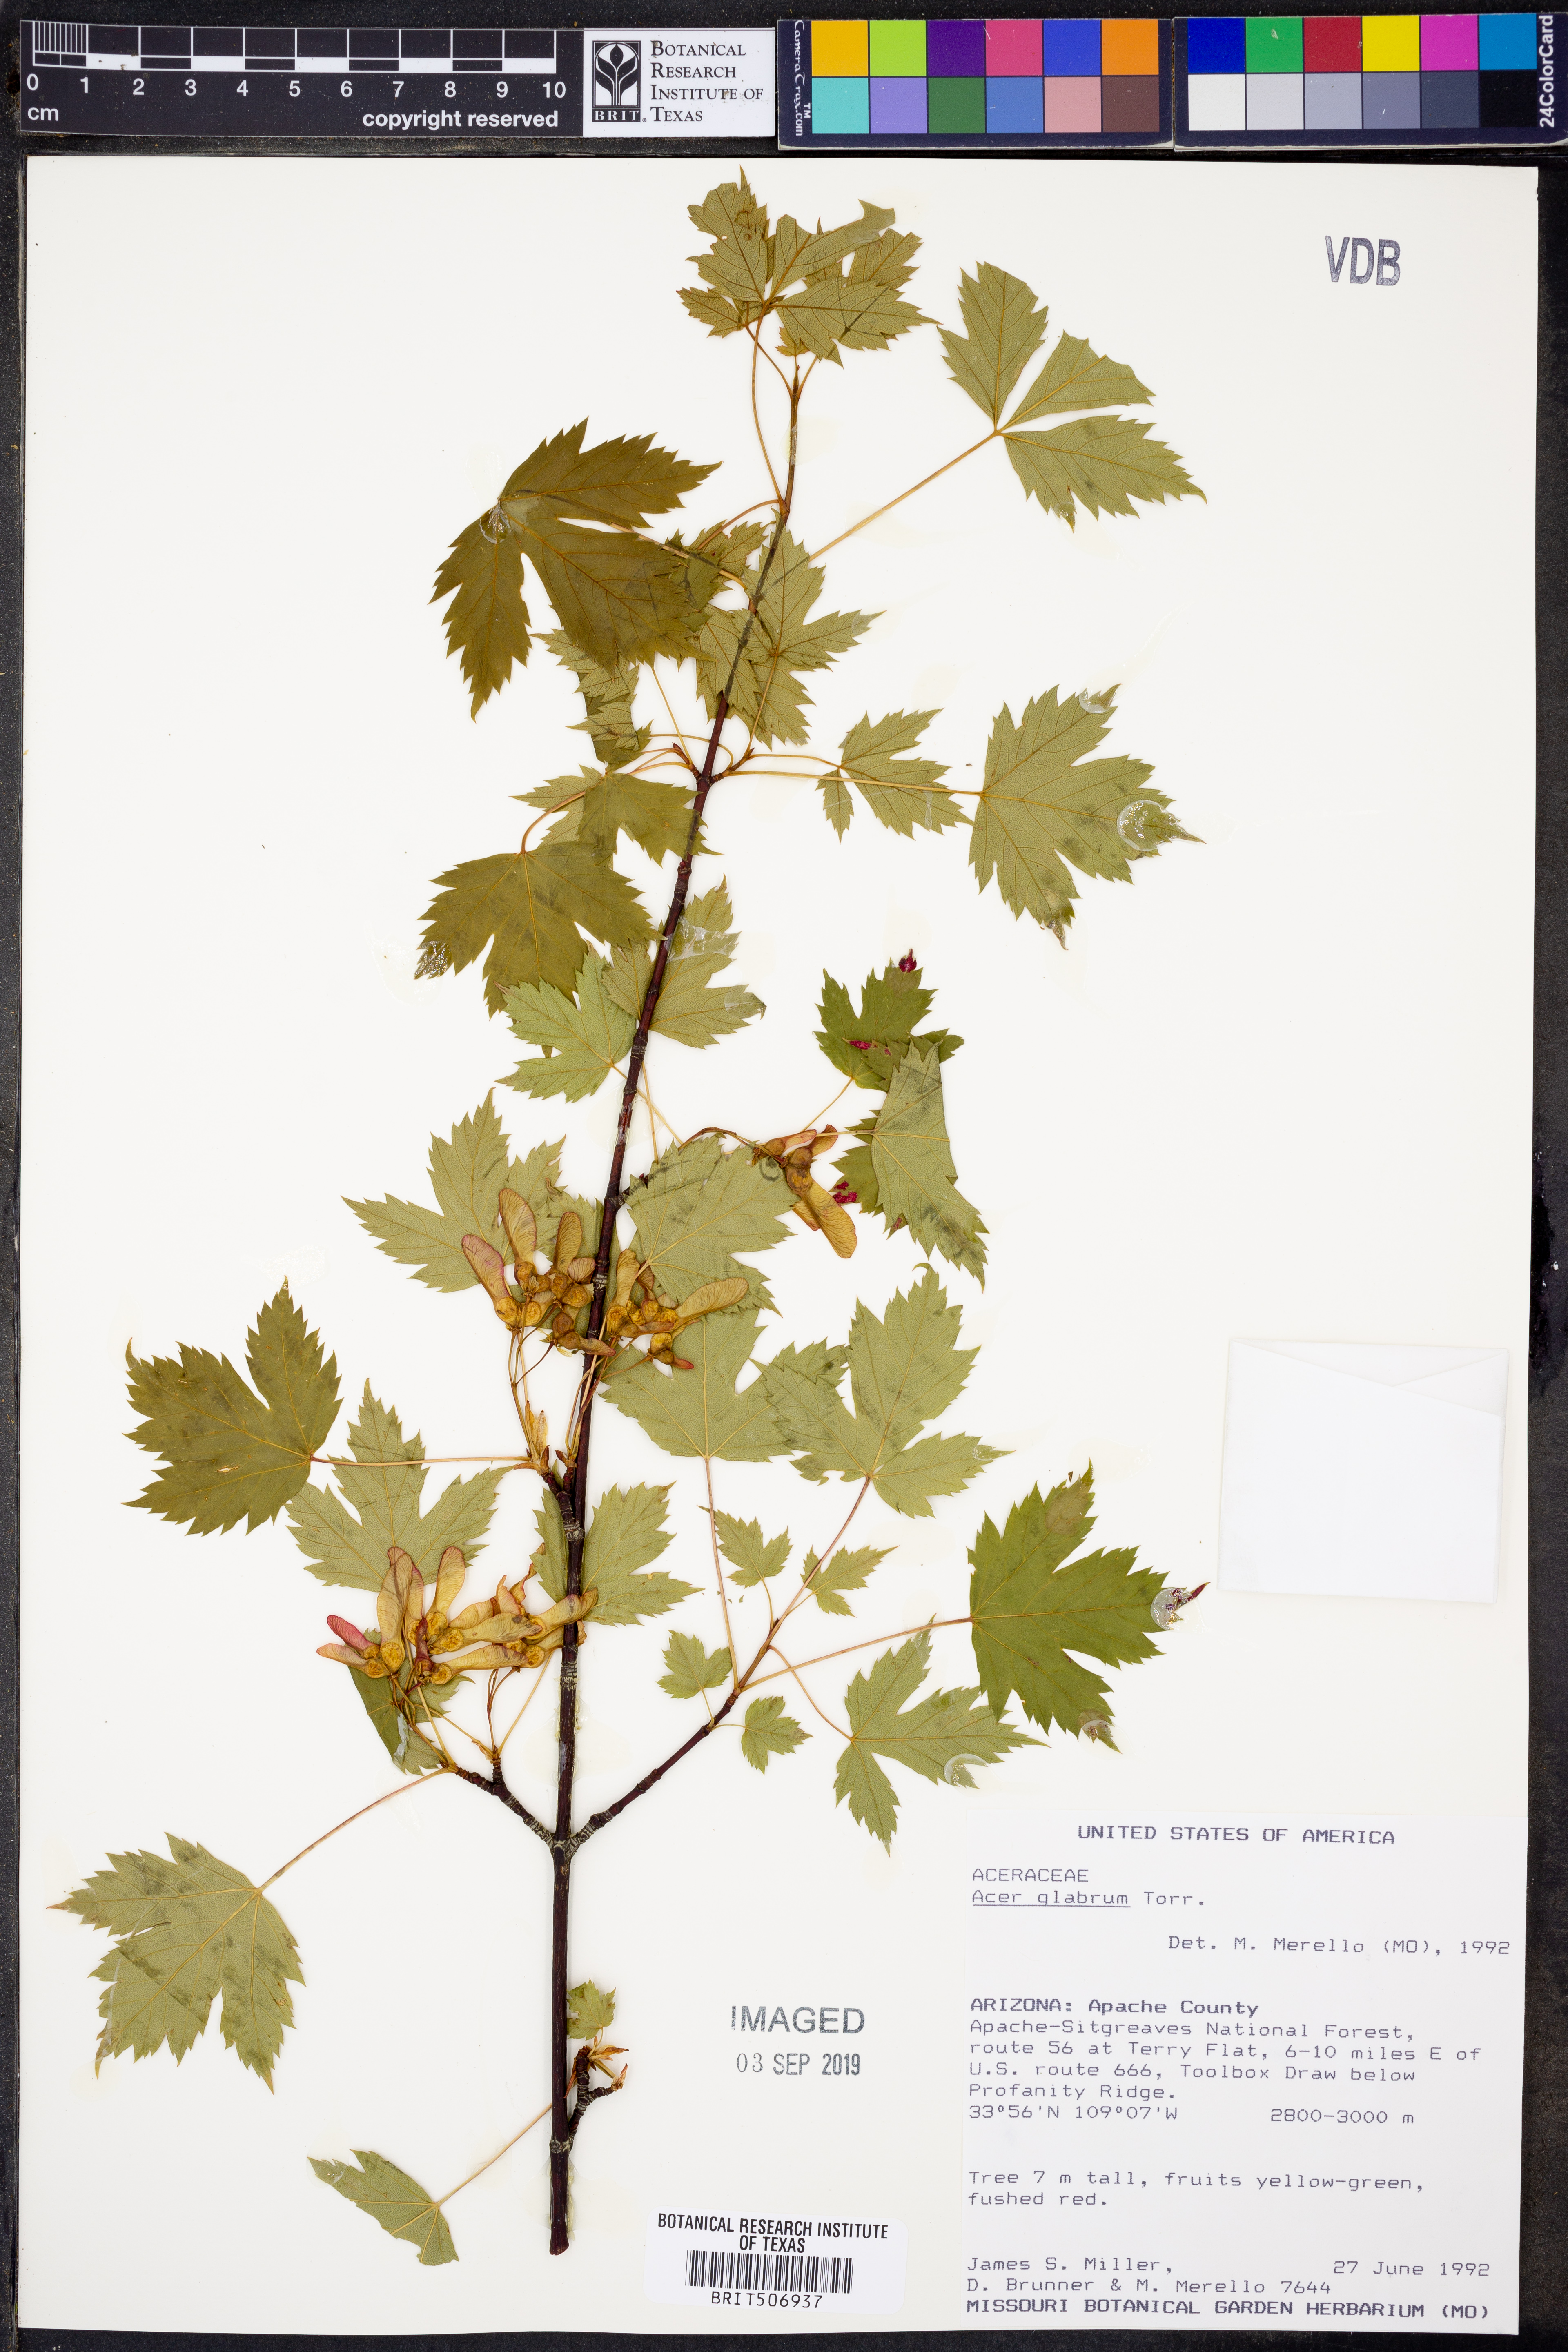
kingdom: Plantae
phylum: Tracheophyta
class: Magnoliopsida
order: Sapindales
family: Sapindaceae
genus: Acer
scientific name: Acer glabrum
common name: Rocky mountain maple
